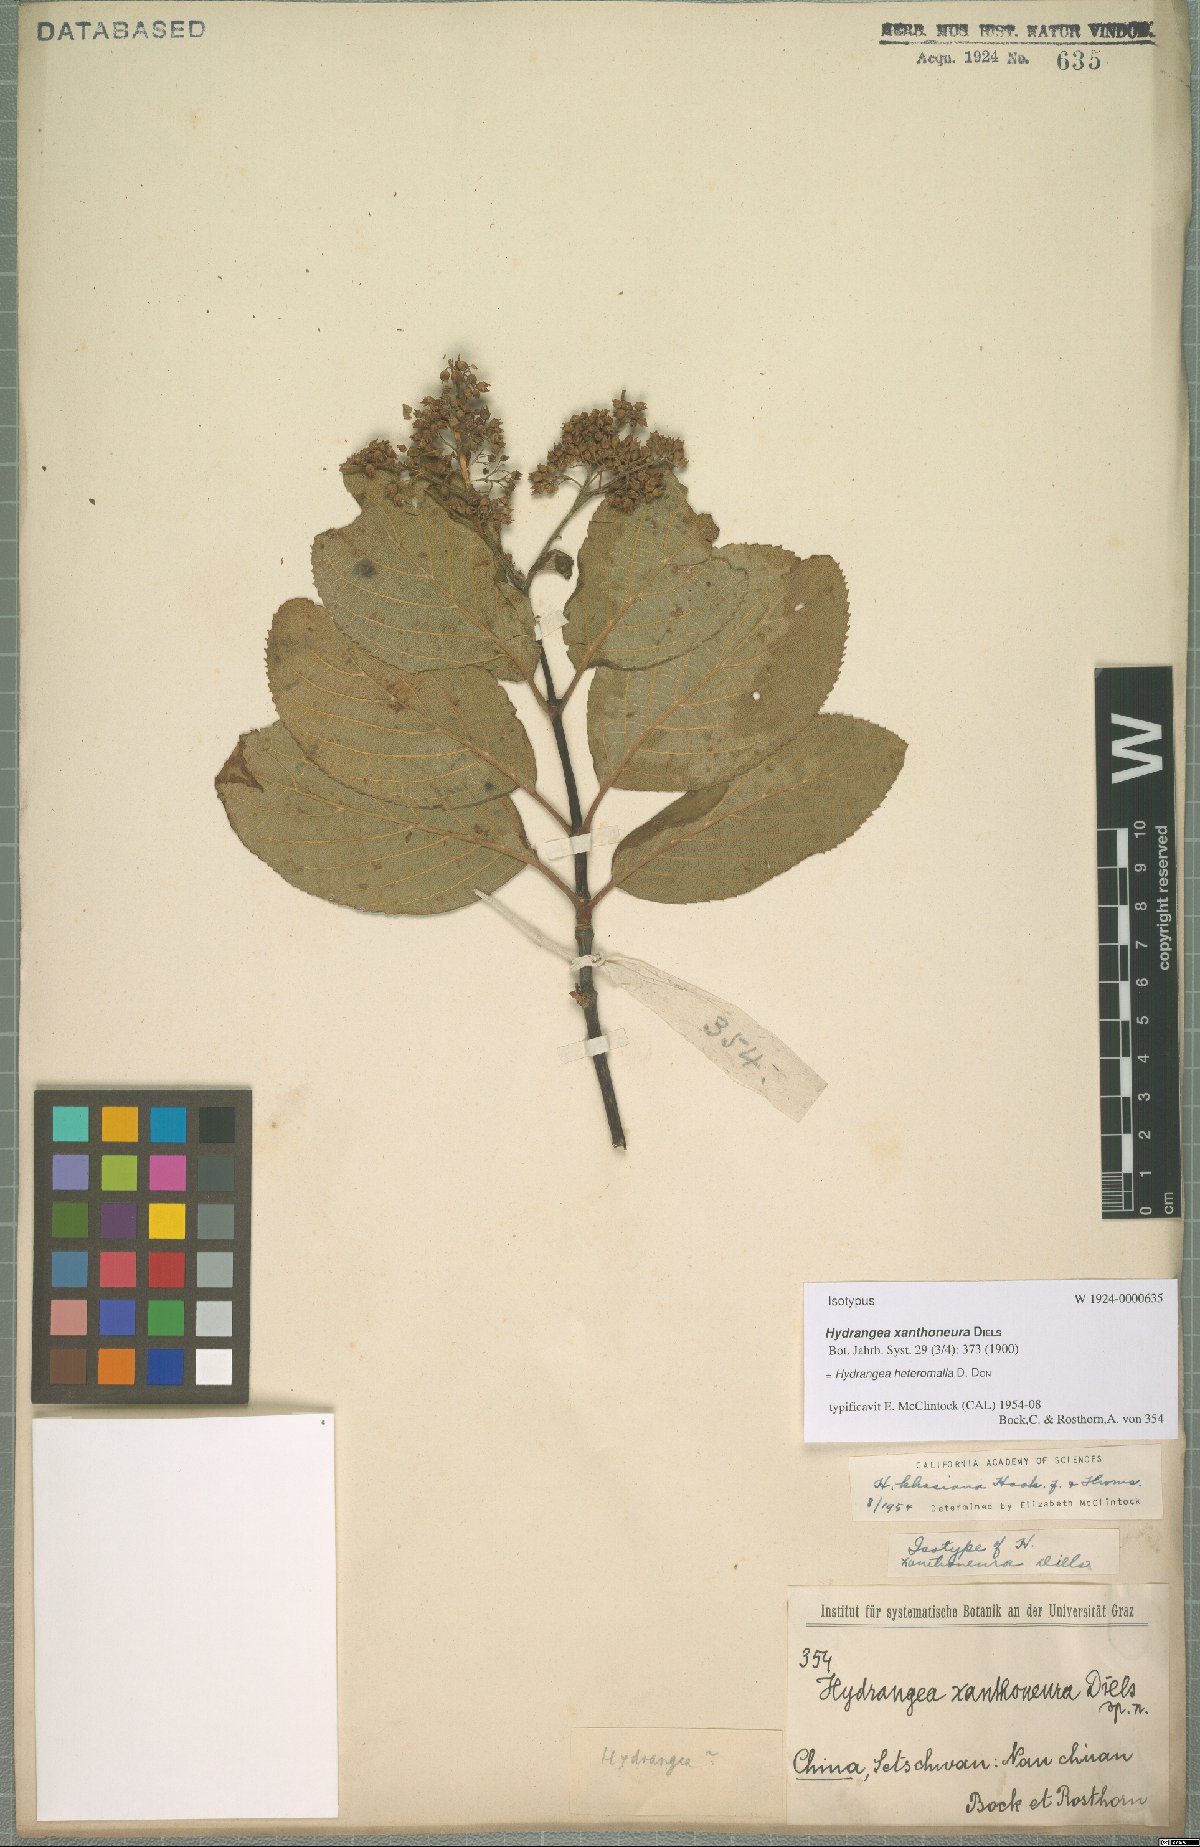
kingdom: Plantae
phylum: Tracheophyta
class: Magnoliopsida
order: Cornales
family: Hydrangeaceae
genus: Hydrangea
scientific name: Hydrangea heteromalla
